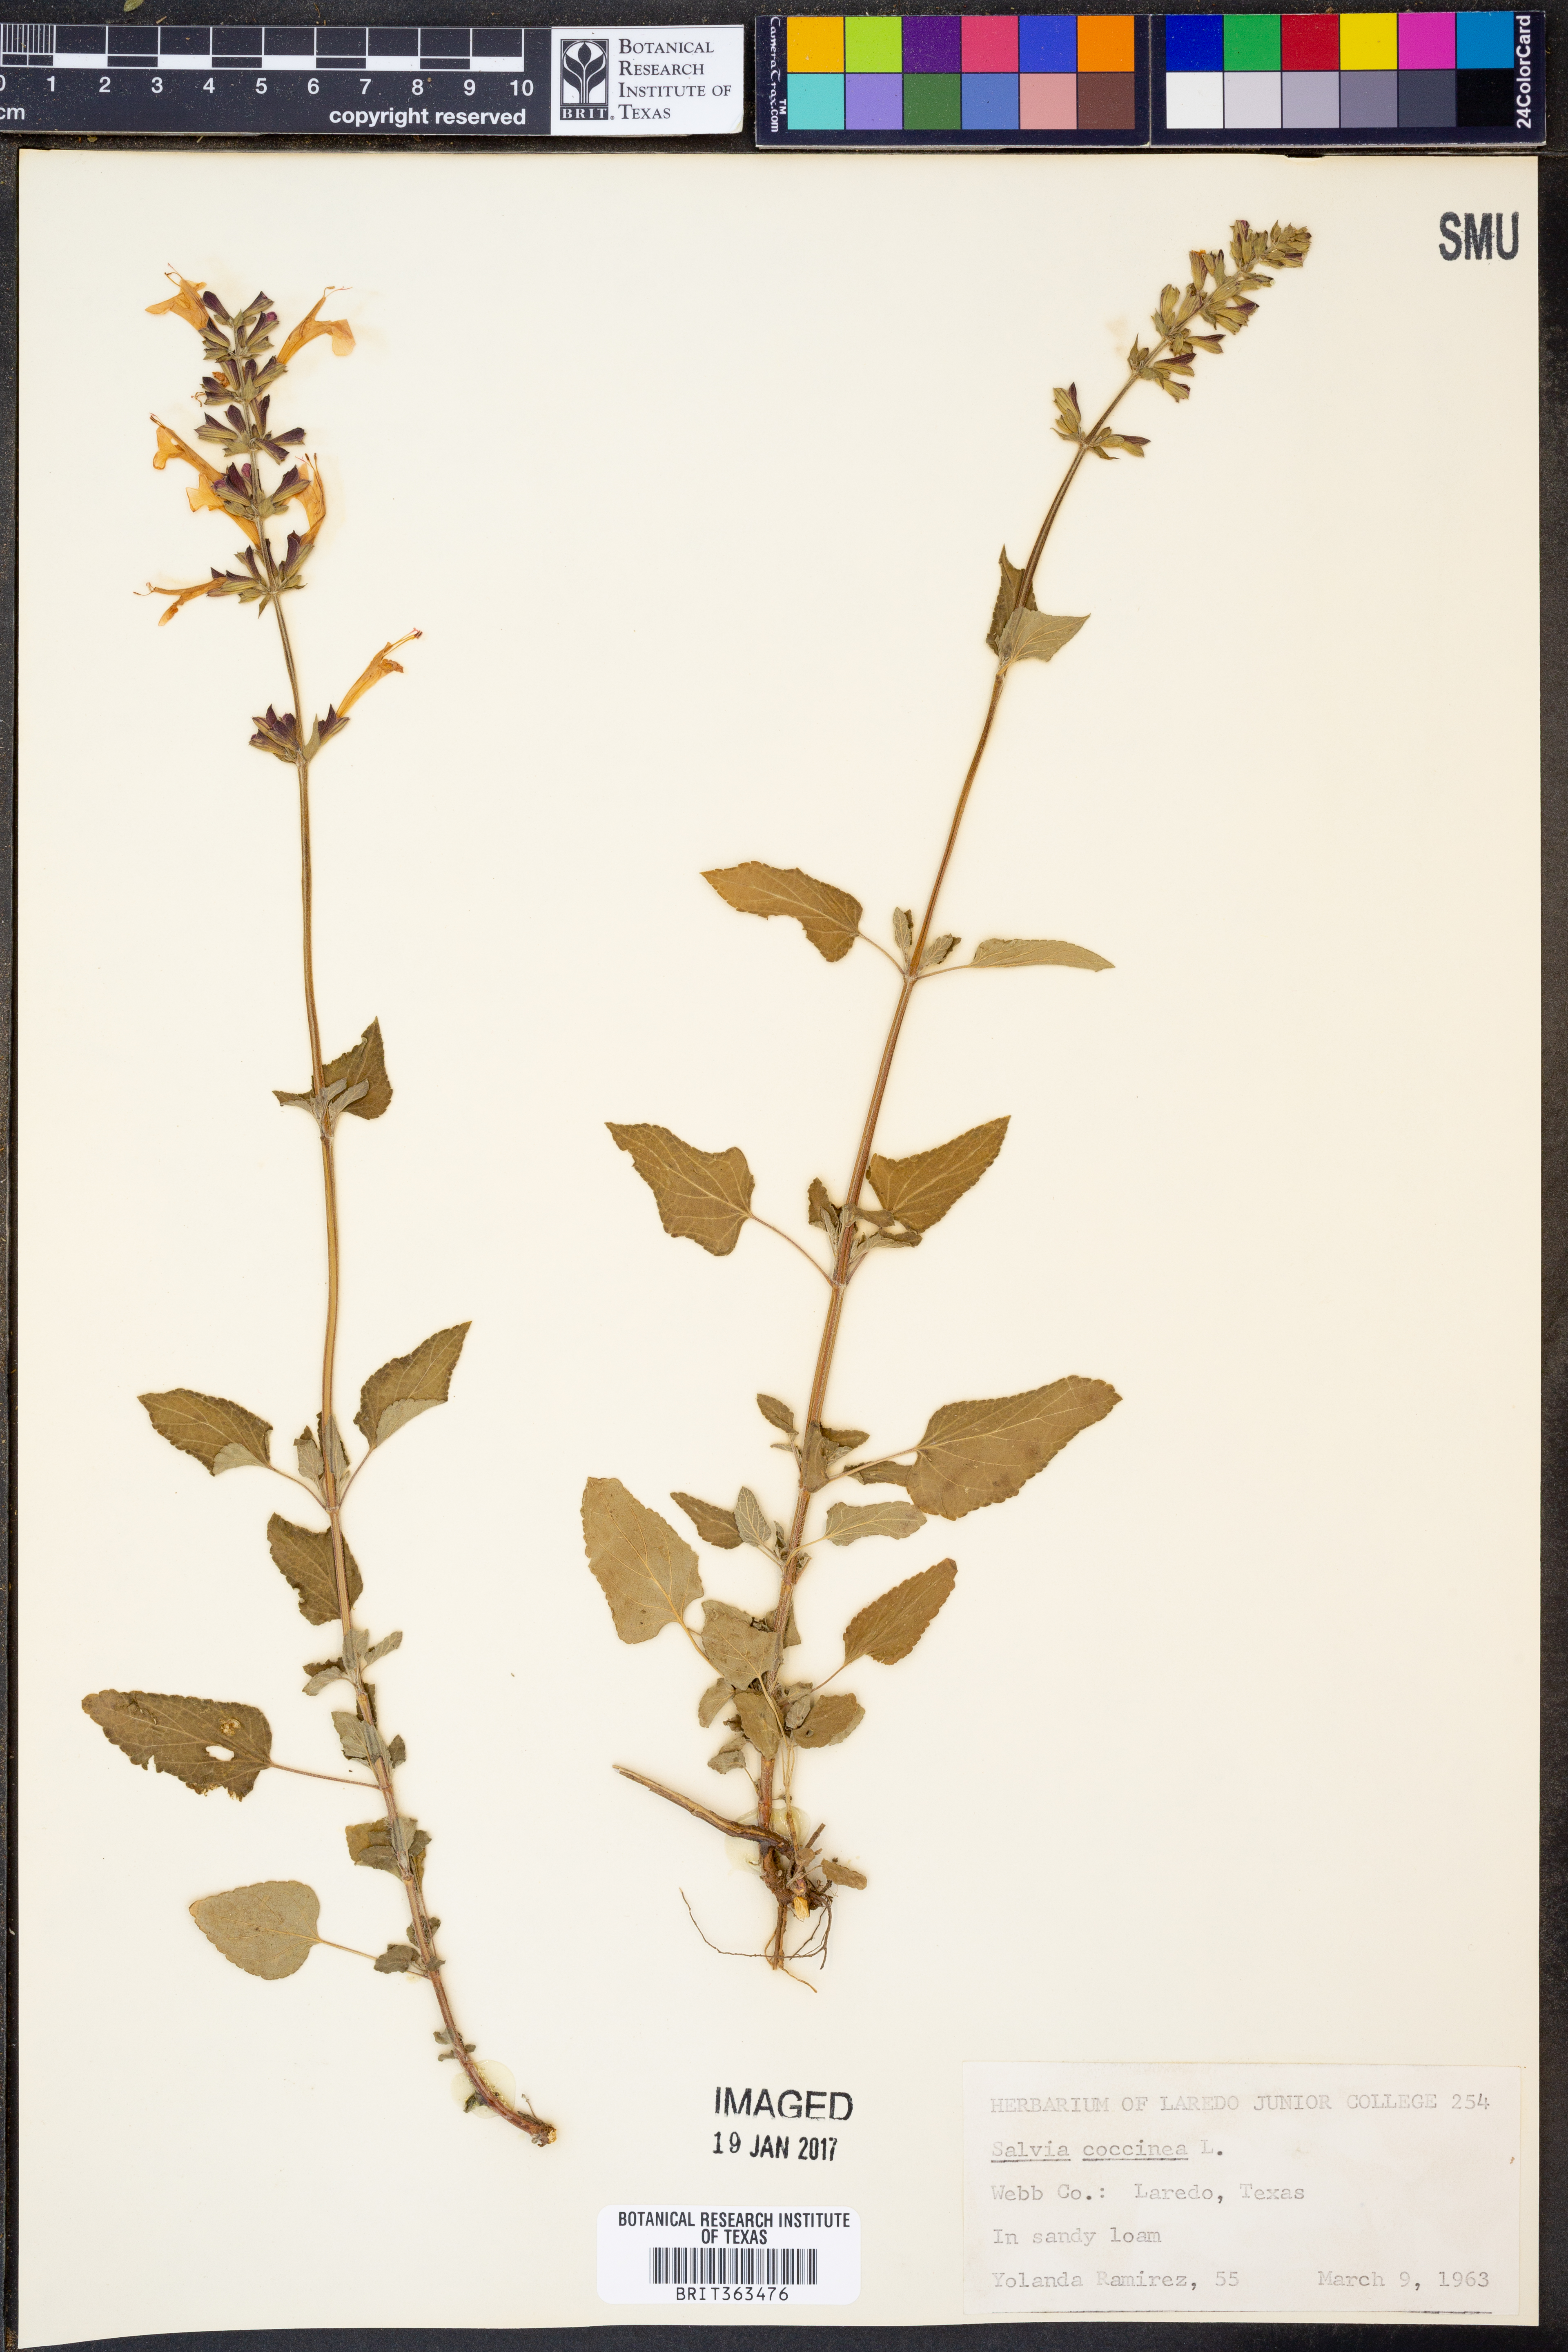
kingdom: Plantae
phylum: Tracheophyta
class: Magnoliopsida
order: Lamiales
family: Lamiaceae
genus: Salvia
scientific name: Salvia coccinea
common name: Blood sage
